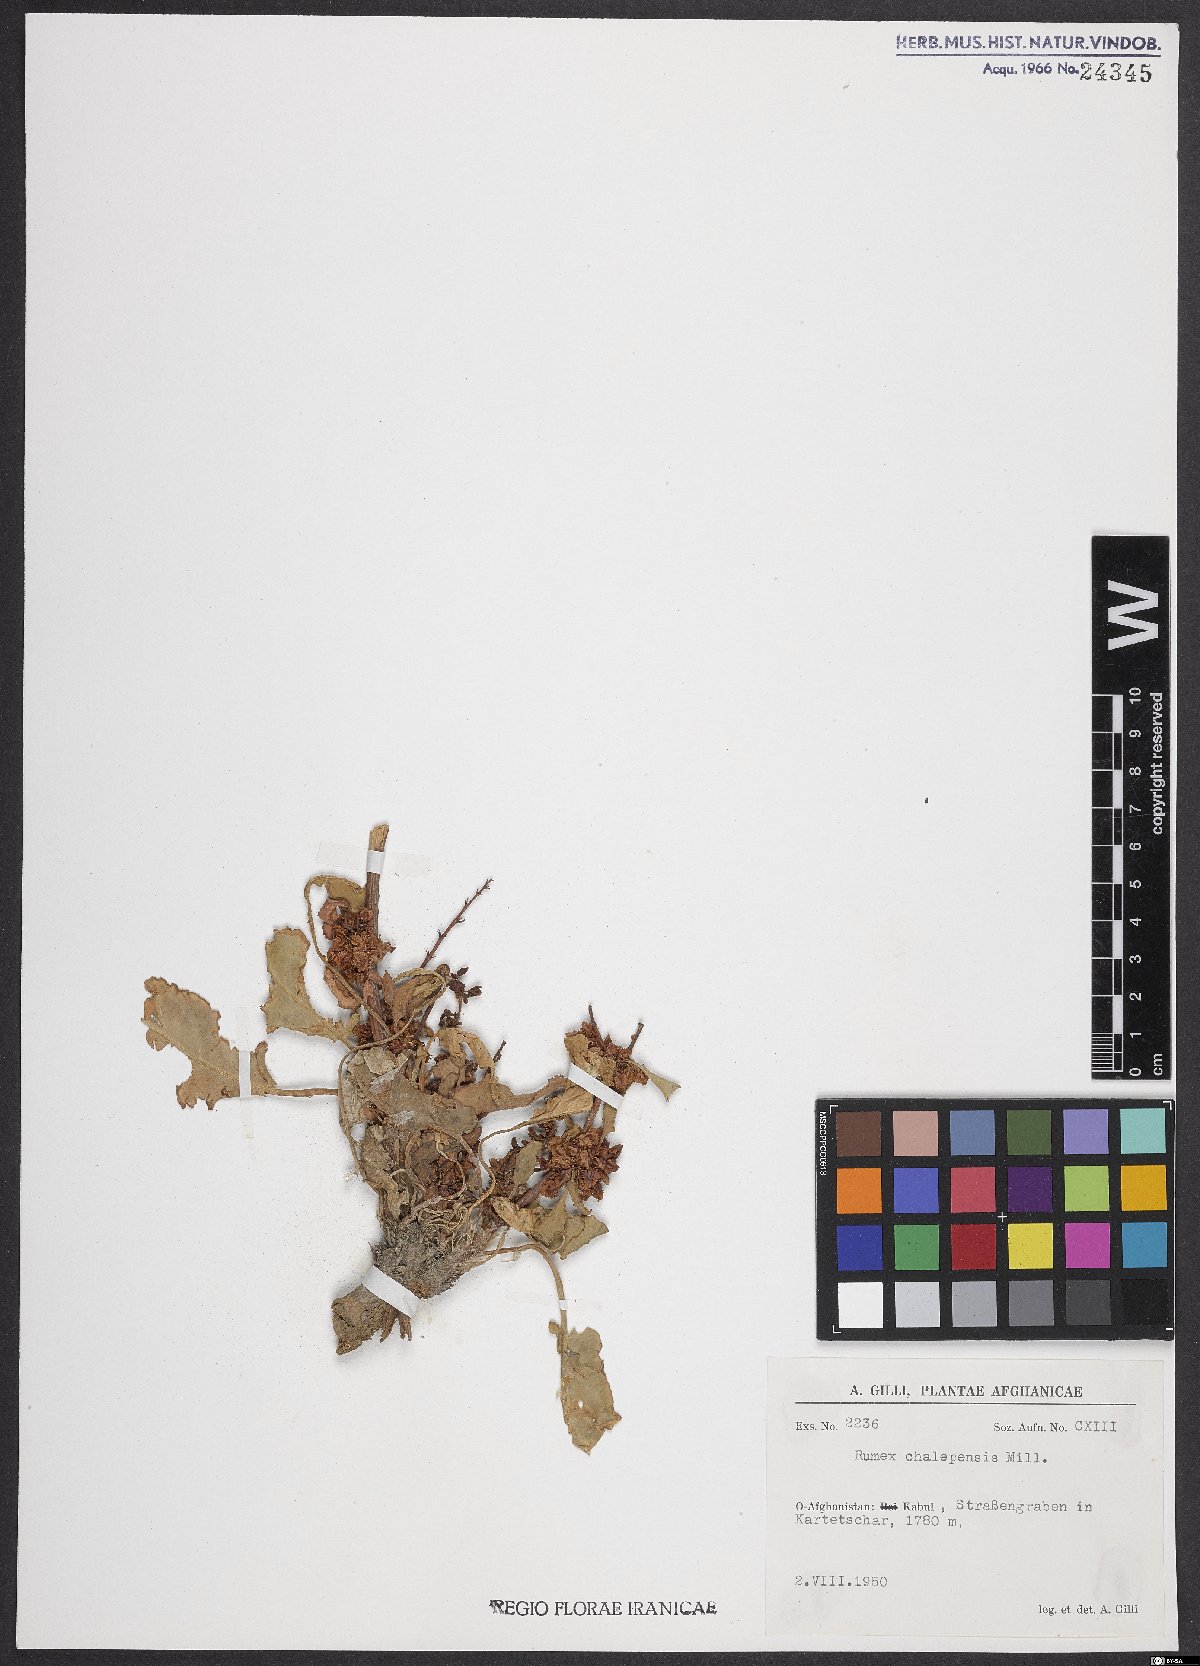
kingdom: Plantae
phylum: Tracheophyta
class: Magnoliopsida
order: Caryophyllales
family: Polygonaceae
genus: Rumex
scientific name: Rumex chalepensis
